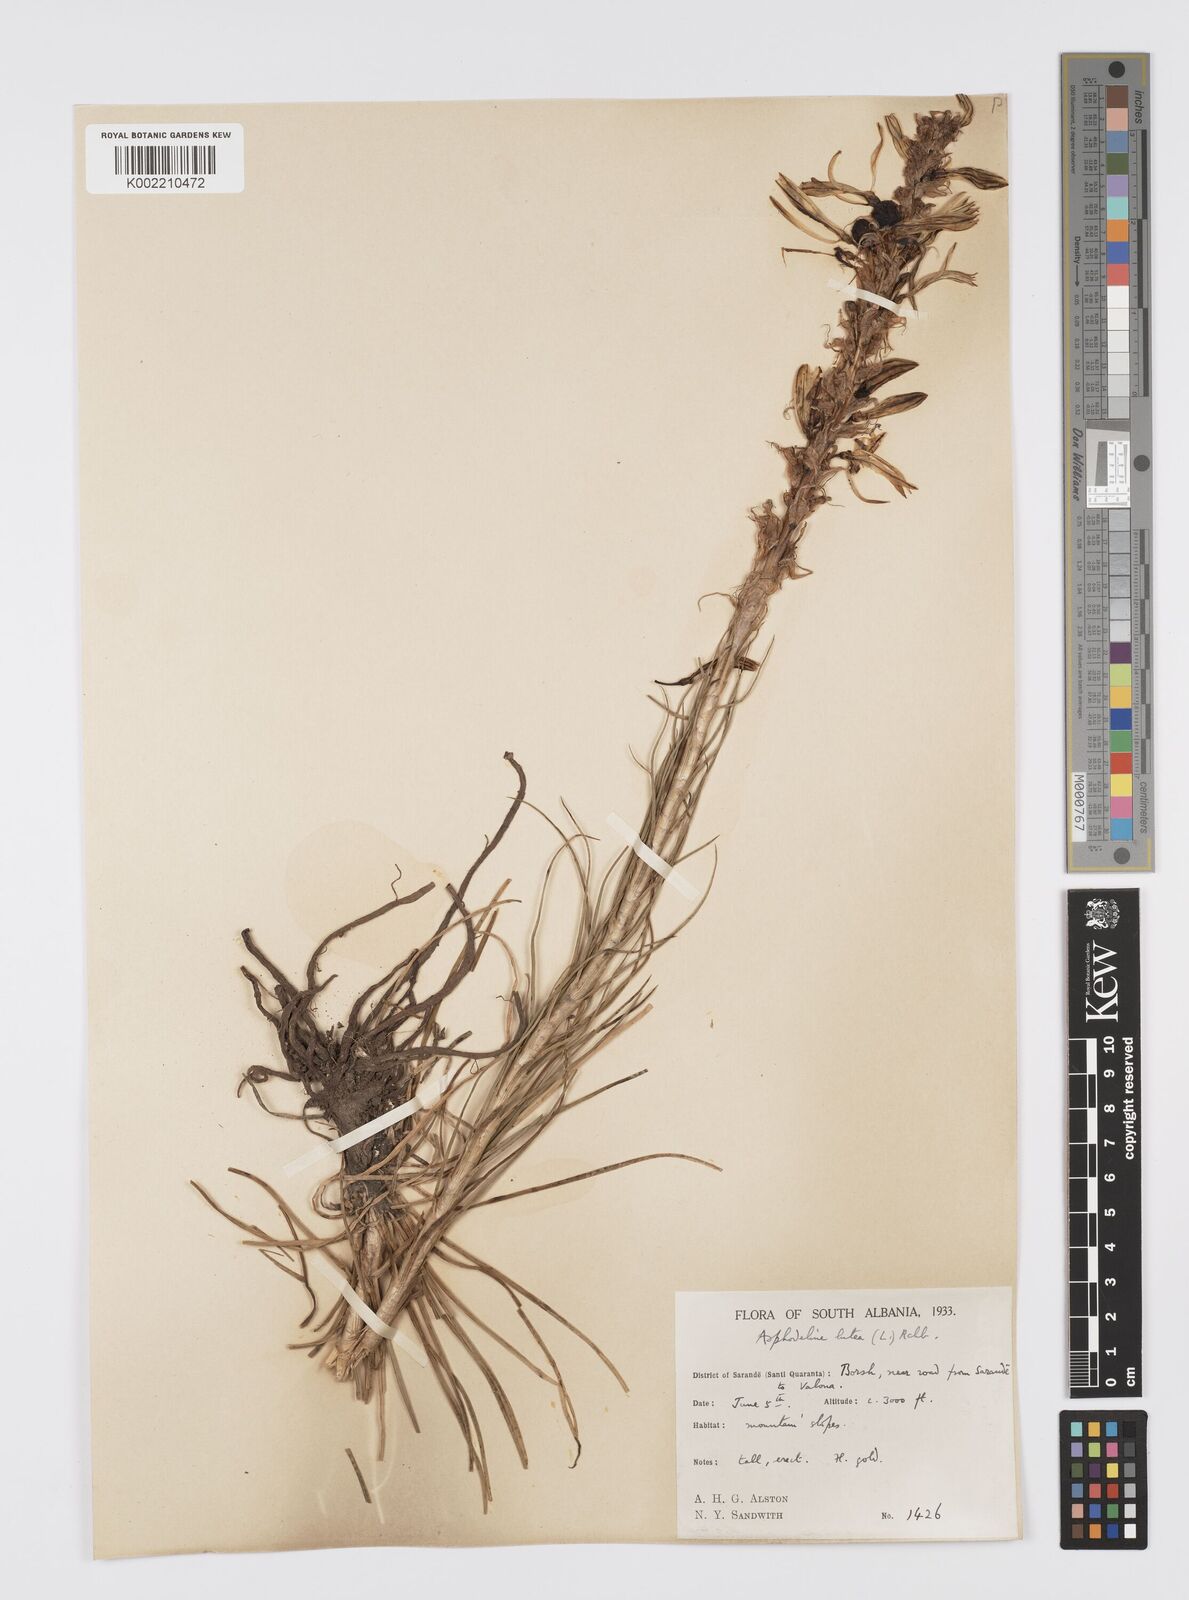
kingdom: Plantae
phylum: Tracheophyta
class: Liliopsida
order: Asparagales
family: Asphodelaceae
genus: Asphodeline
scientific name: Asphodeline lutea
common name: Yellow asphodel
